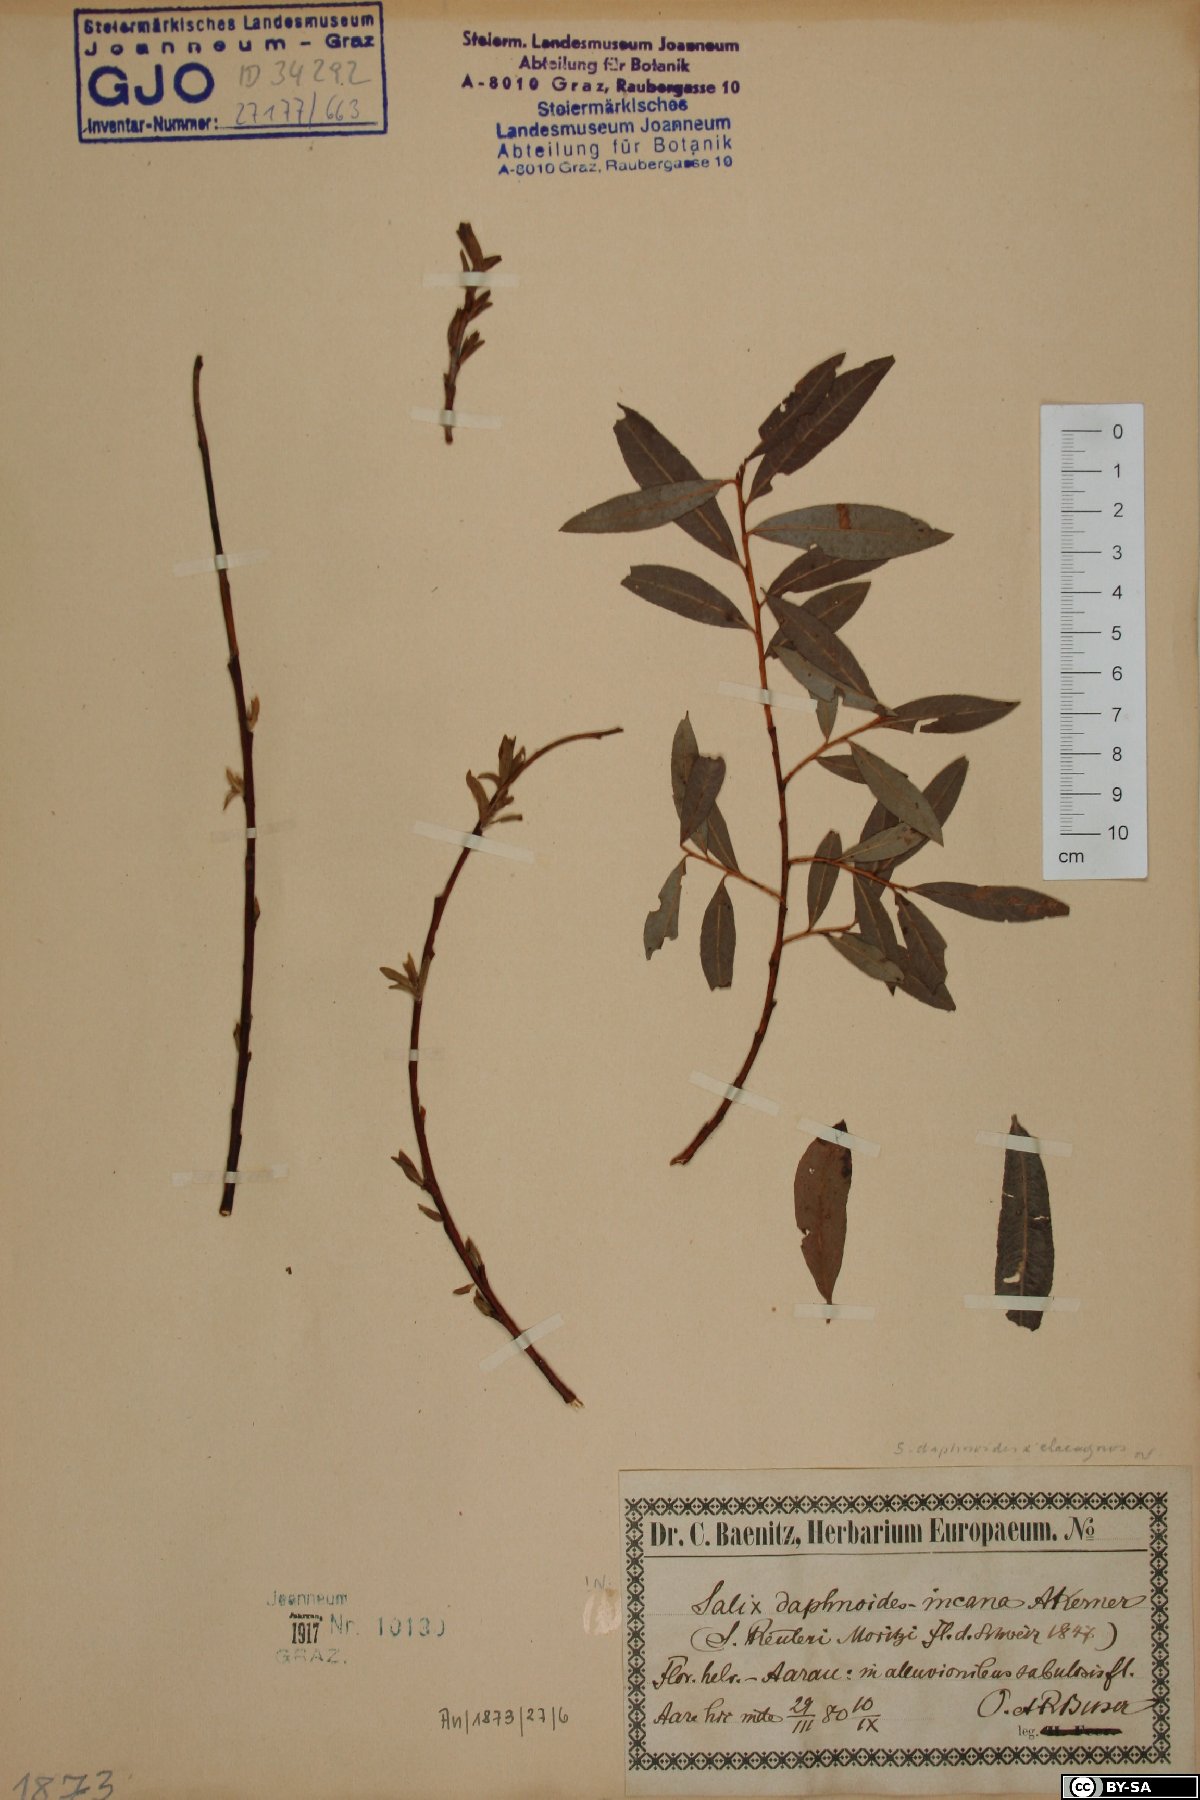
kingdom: Plantae
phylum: Tracheophyta
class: Magnoliopsida
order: Malpighiales
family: Salicaceae
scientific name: Salicaceae
